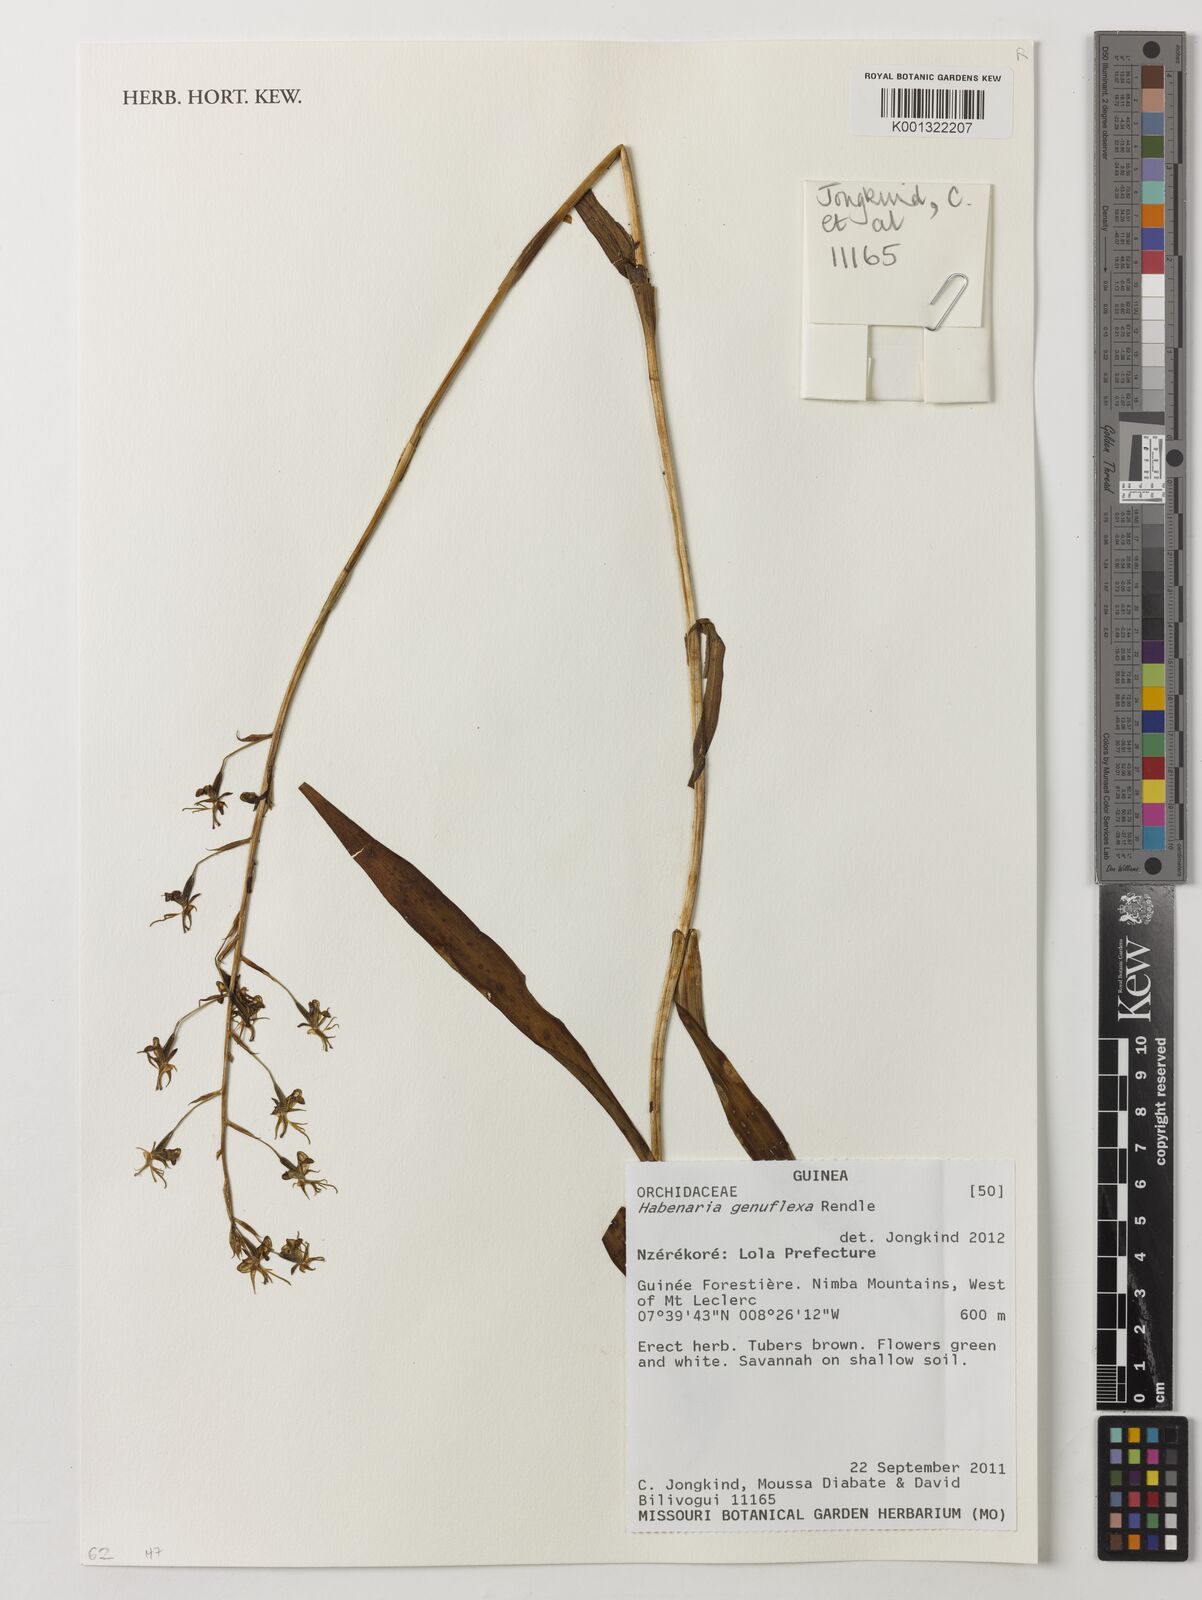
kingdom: Plantae
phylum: Tracheophyta
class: Liliopsida
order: Asparagales
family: Orchidaceae
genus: Habenaria
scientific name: Habenaria genuflexa
